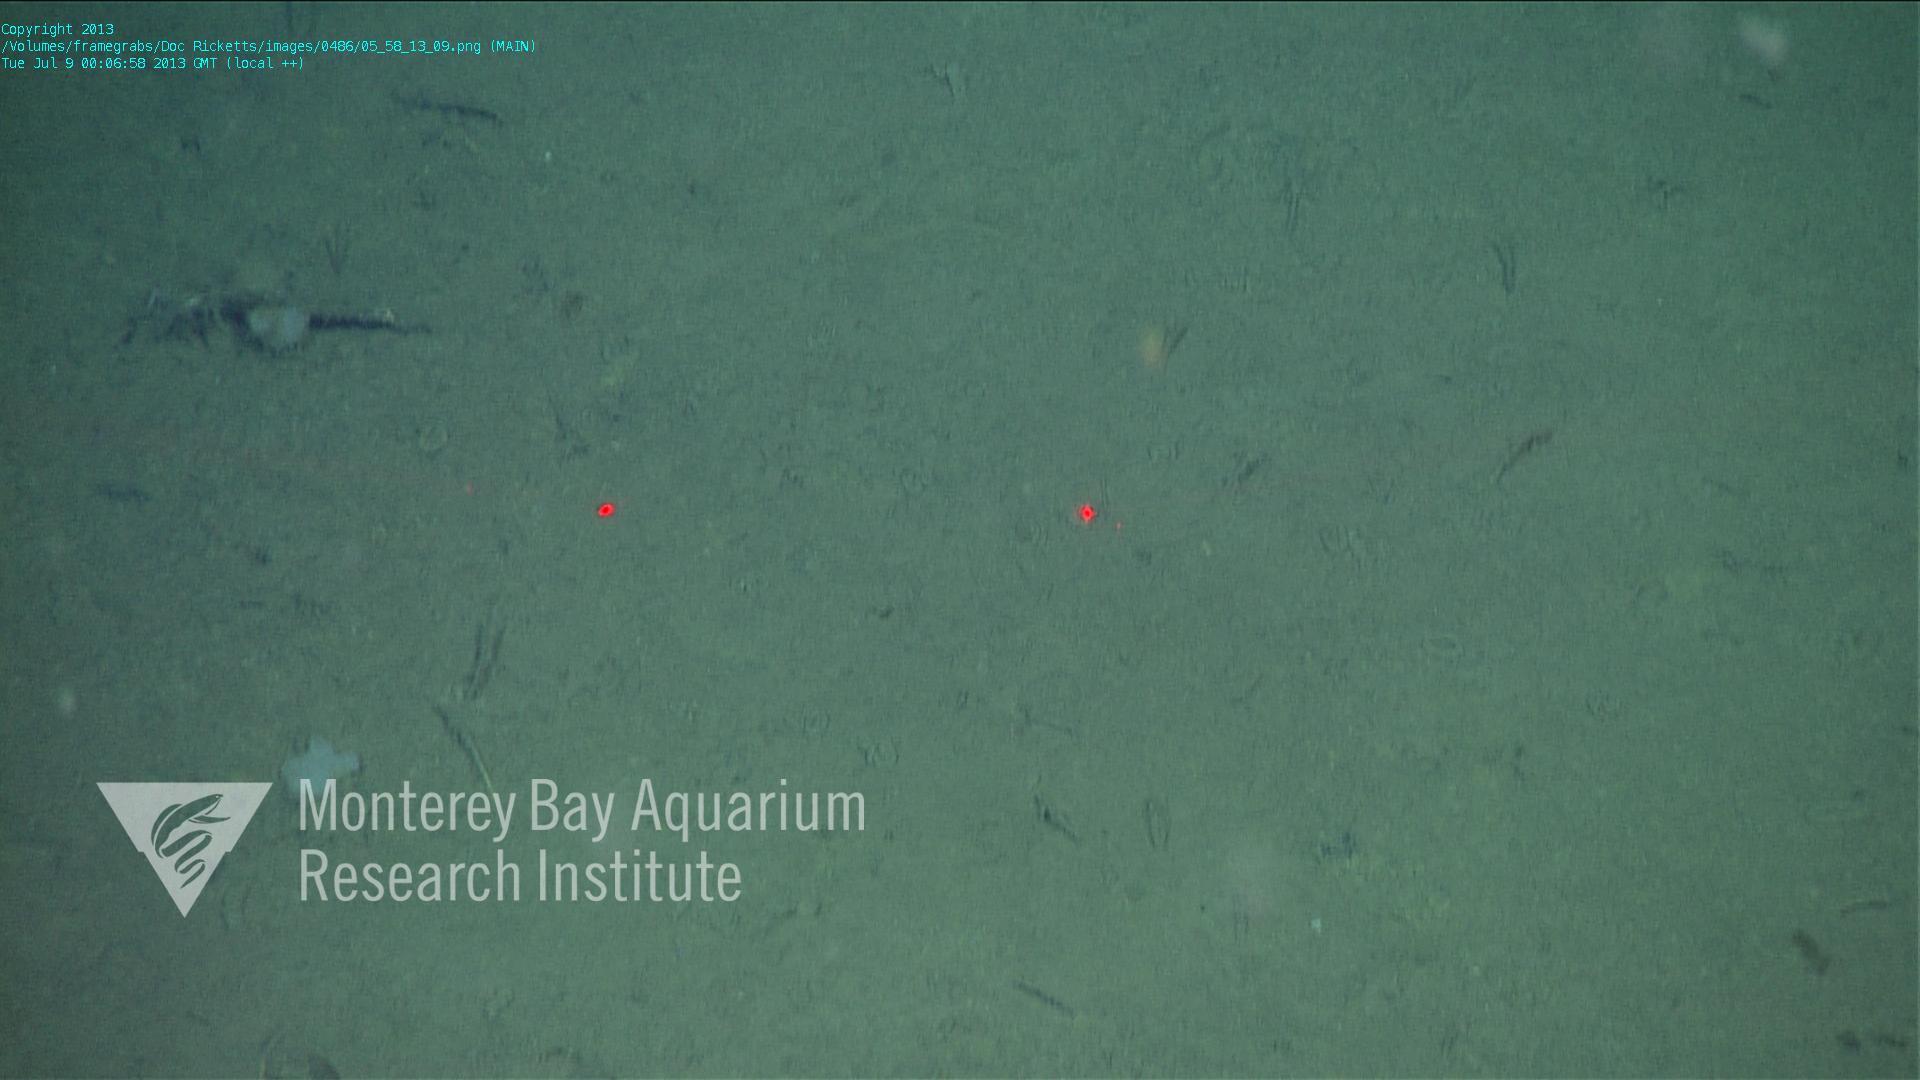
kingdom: Animalia
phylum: Porifera
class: Hexactinellida
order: Lyssacinosida
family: Rossellidae
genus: Bathydorus
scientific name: Bathydorus spinosus
